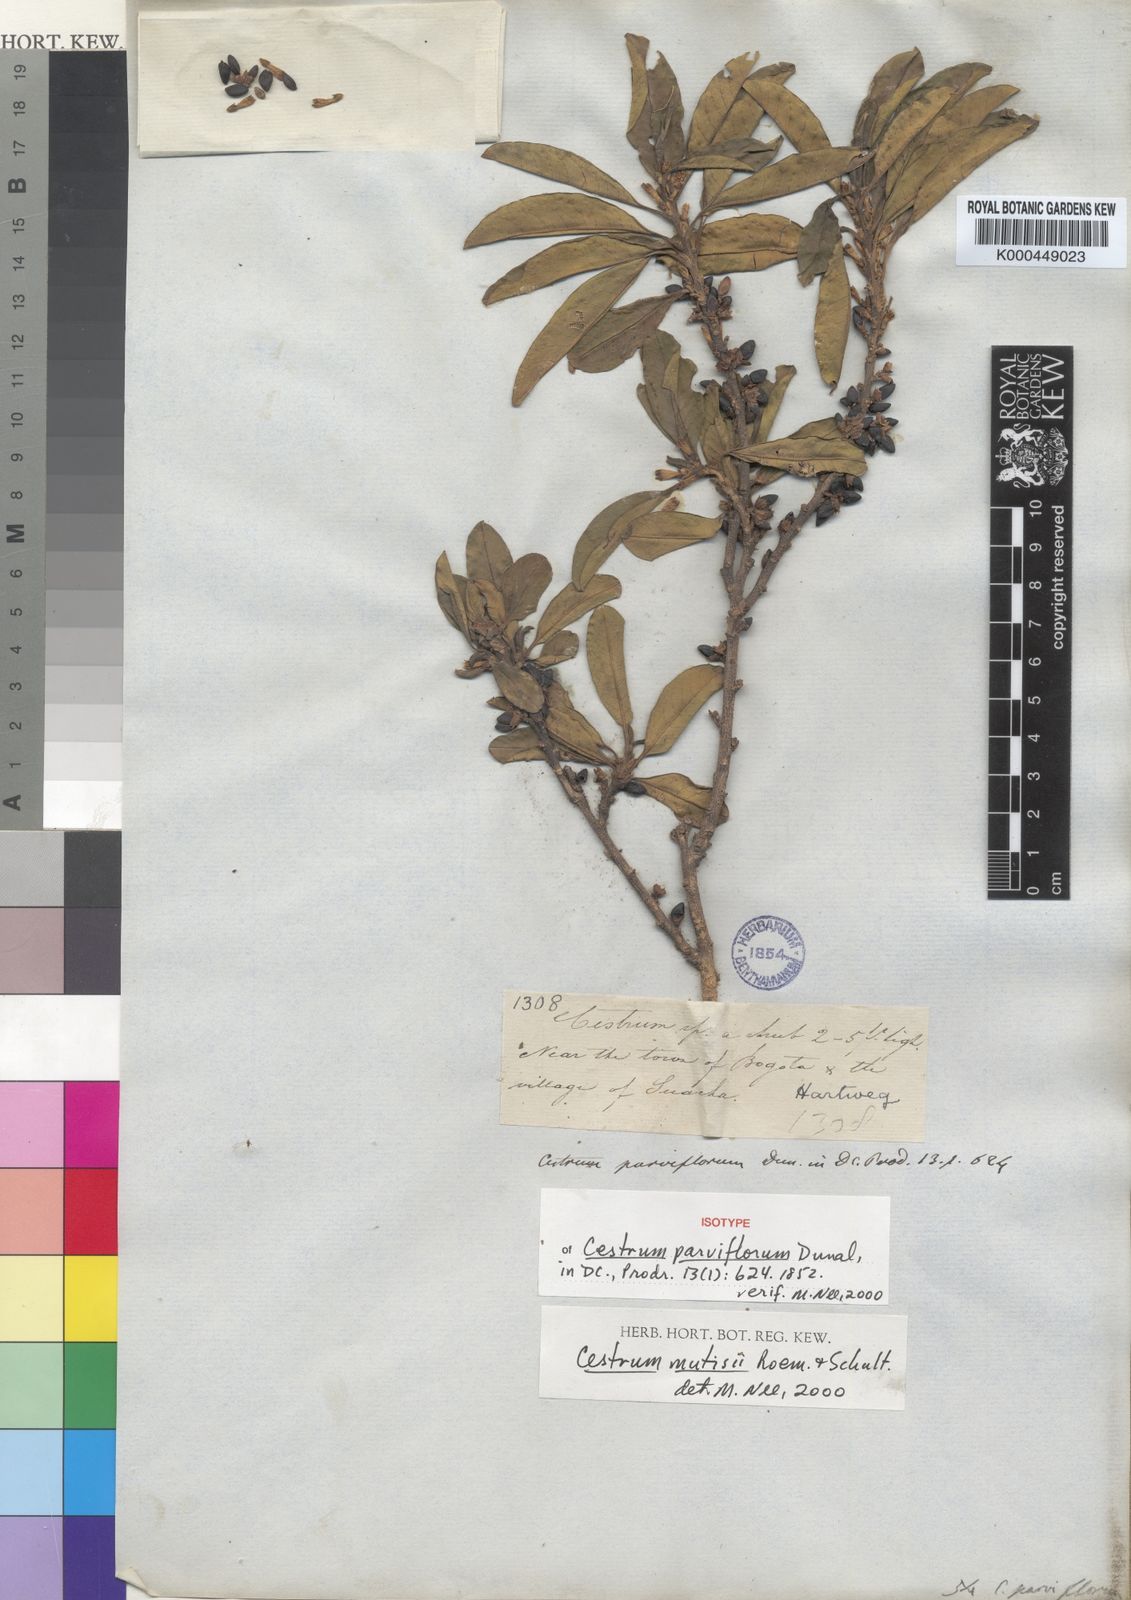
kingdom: Plantae
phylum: Tracheophyta
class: Magnoliopsida
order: Solanales
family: Solanaceae
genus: Cestrum
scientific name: Cestrum mutisii
